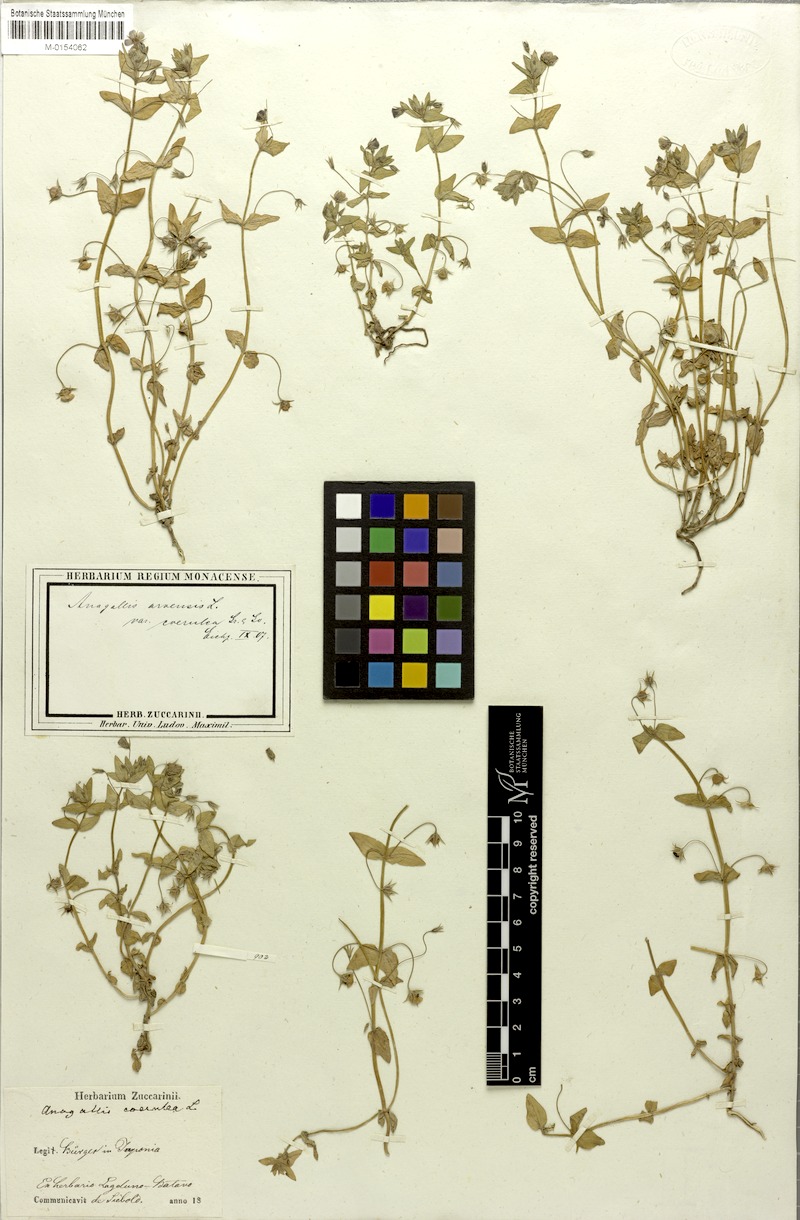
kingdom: Plantae
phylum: Tracheophyta
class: Magnoliopsida
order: Ericales
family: Primulaceae
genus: Lysimachia
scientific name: Lysimachia loeflingii
